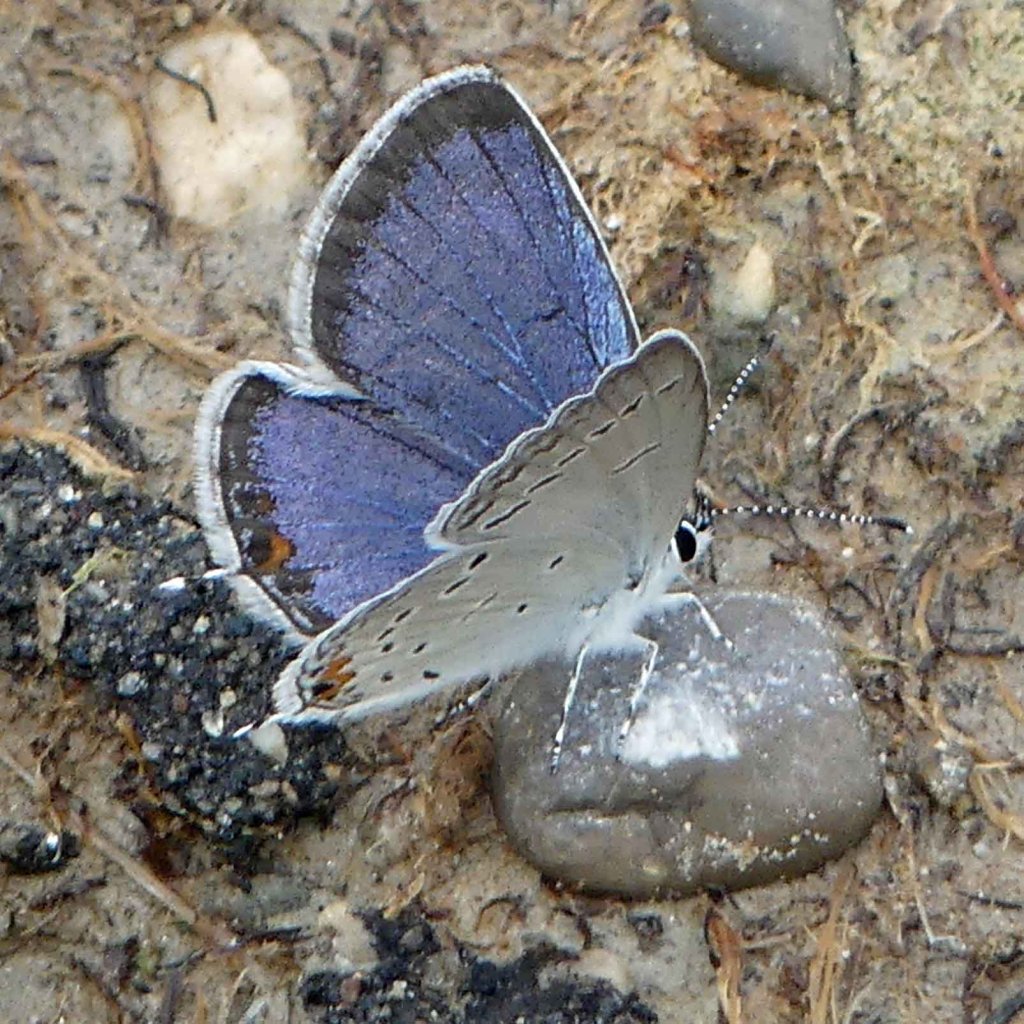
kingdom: Animalia
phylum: Arthropoda
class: Insecta
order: Lepidoptera
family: Lycaenidae
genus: Elkalyce
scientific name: Elkalyce comyntas
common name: Eastern Tailed-Blue
